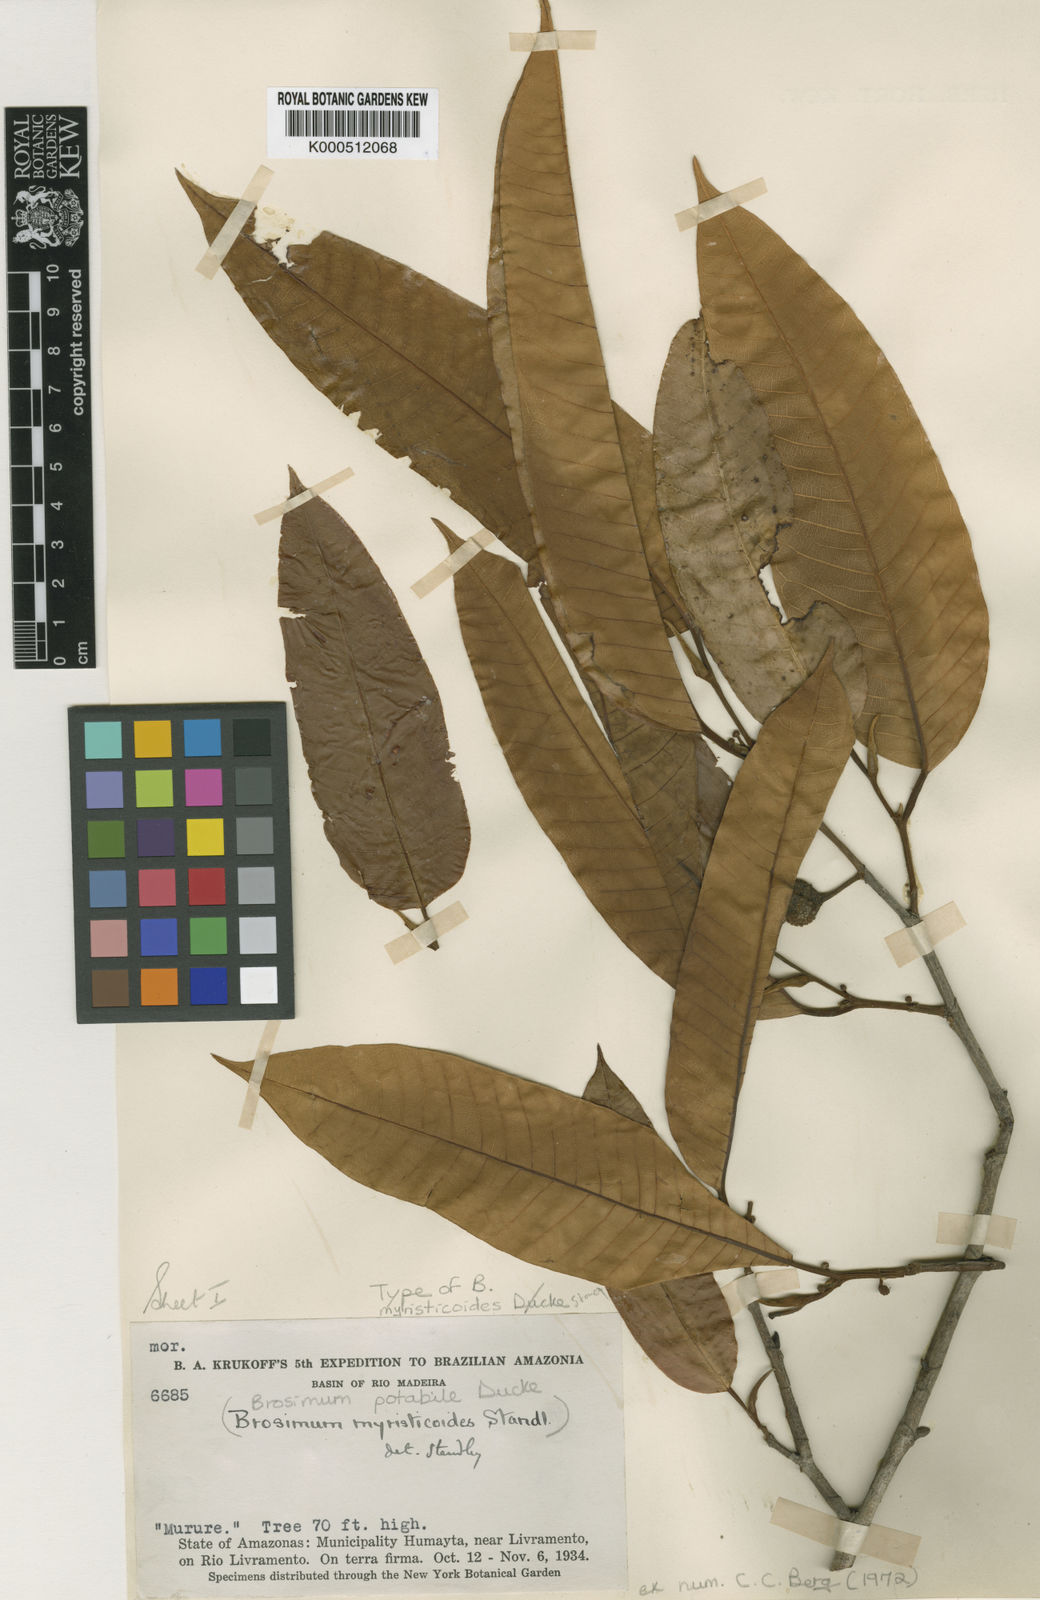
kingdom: Plantae
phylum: Tracheophyta
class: Magnoliopsida
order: Rosales
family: Moraceae
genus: Brosimum
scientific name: Brosimum potabile
